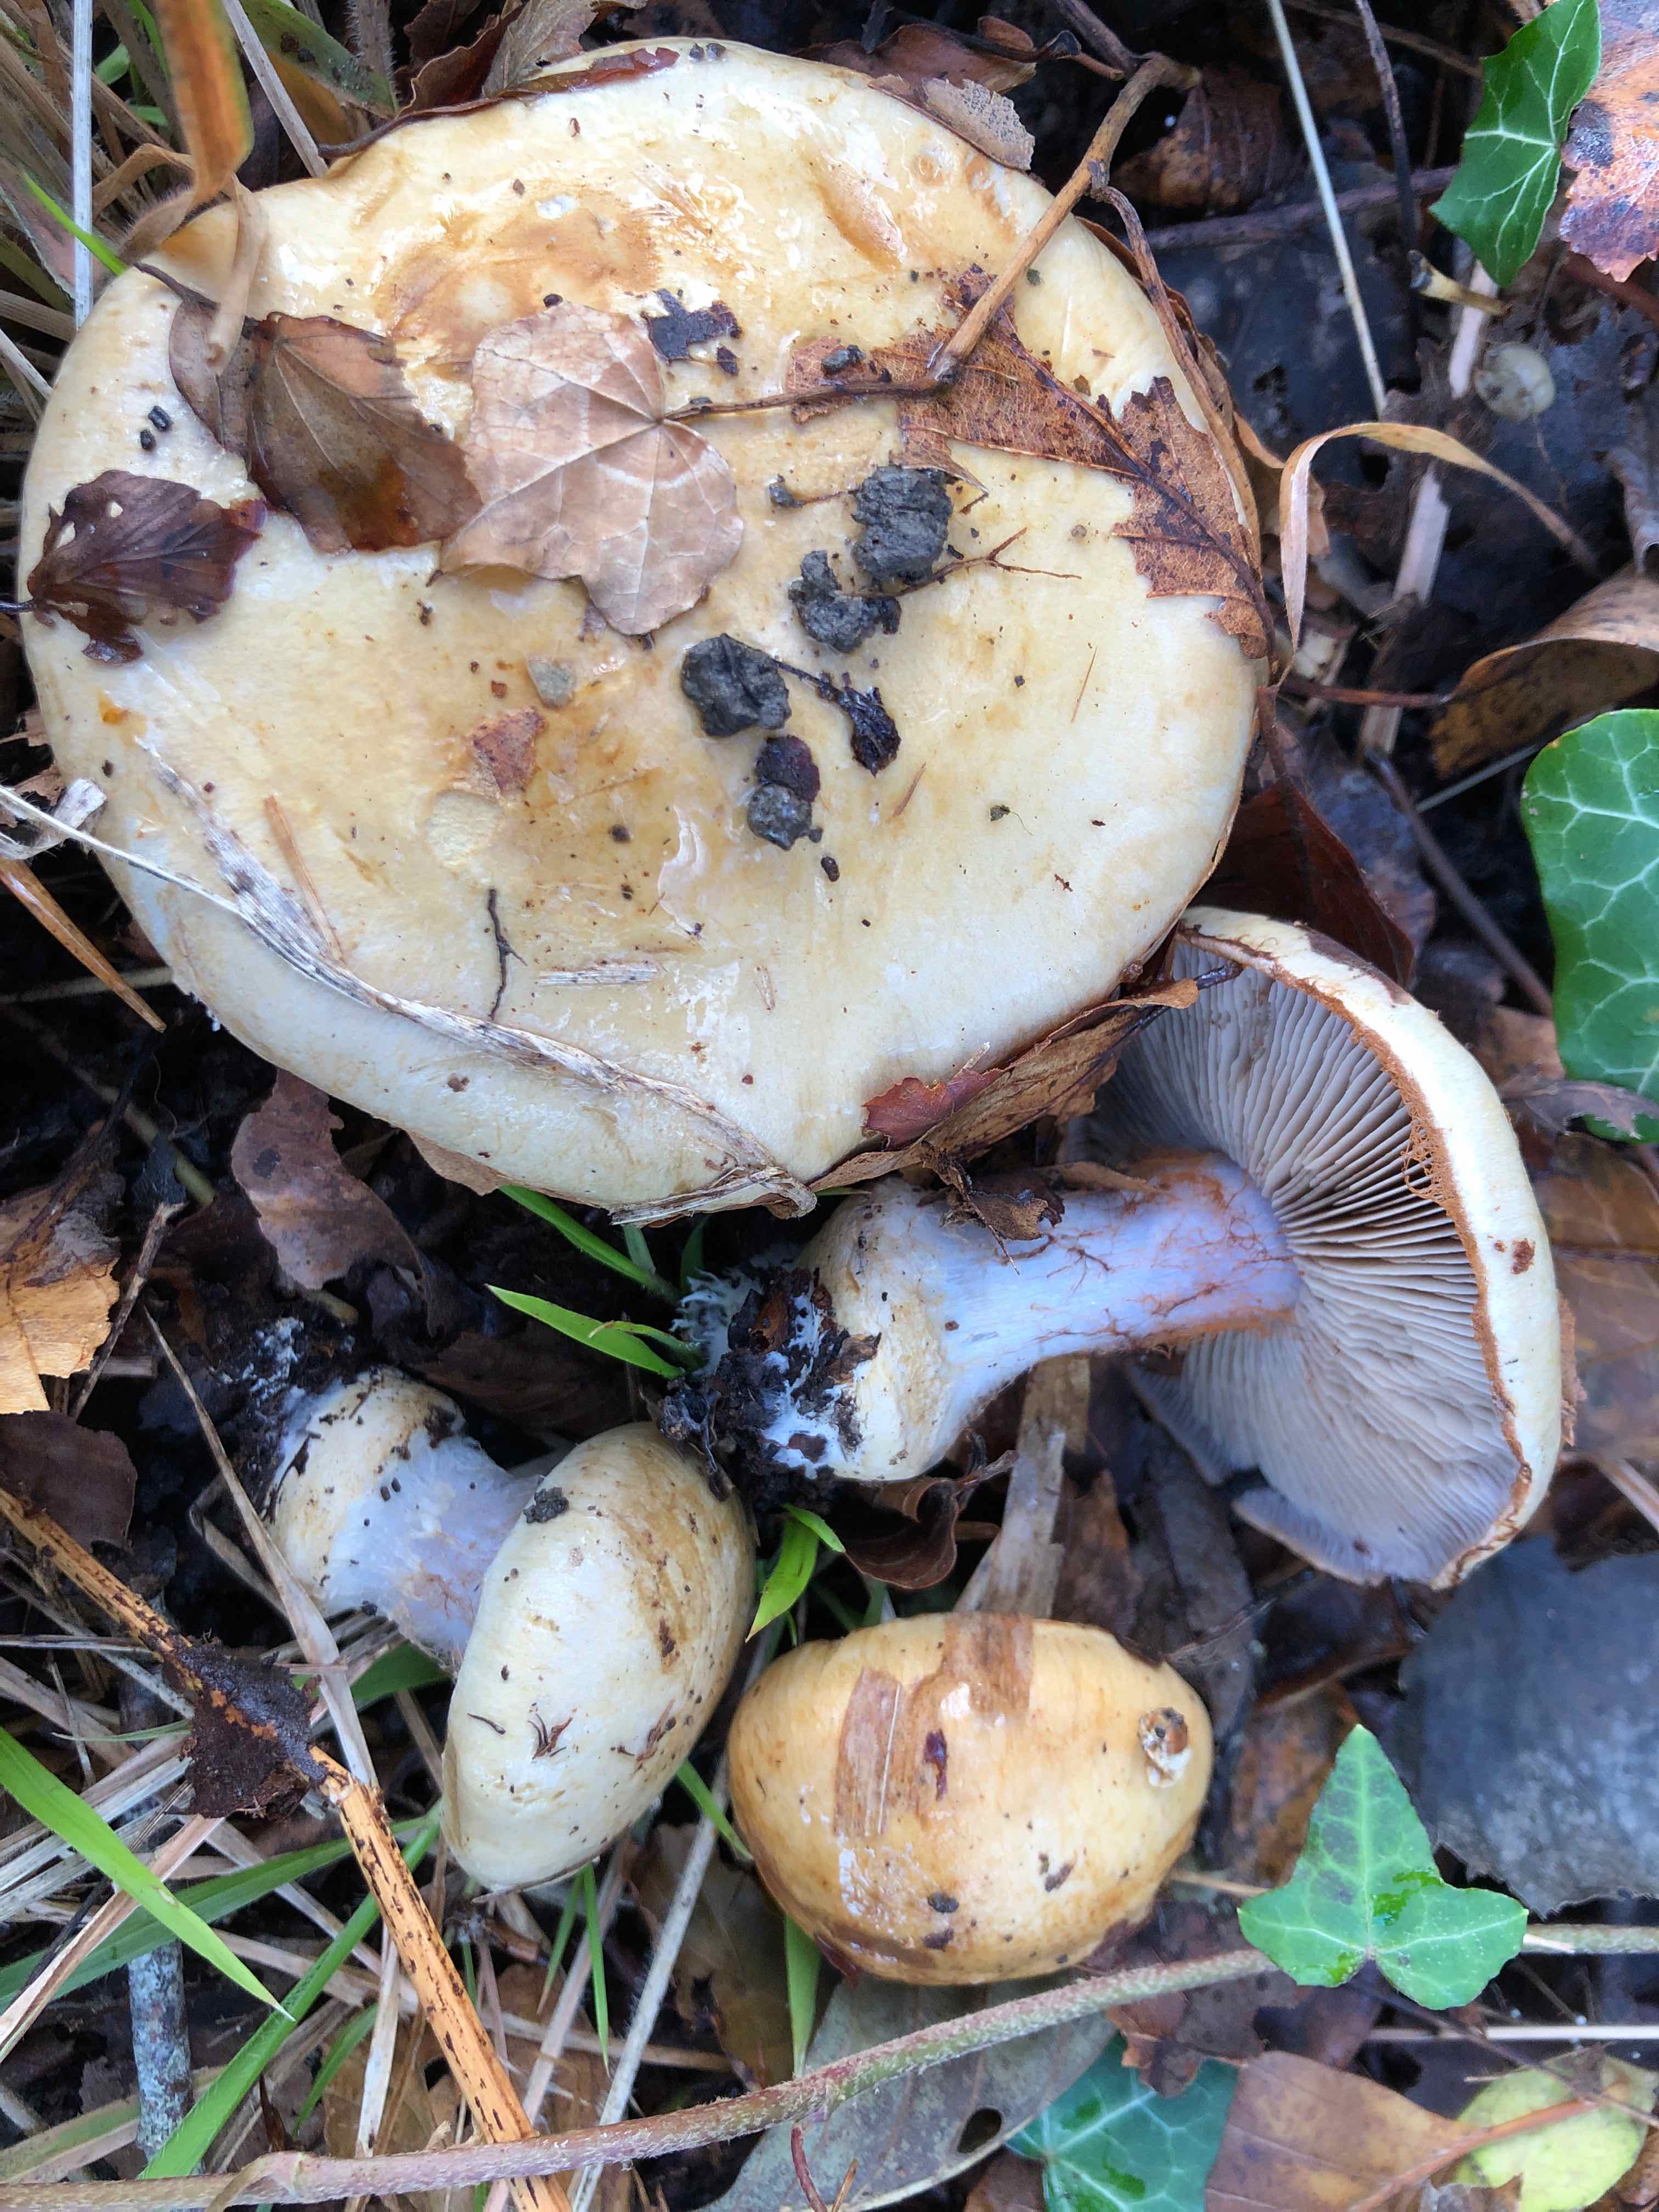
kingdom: Fungi
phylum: Basidiomycota
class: Agaricomycetes
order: Agaricales
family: Cortinariaceae
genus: Cortinarius
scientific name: Cortinarius anserinus
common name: bøge-slørhat
